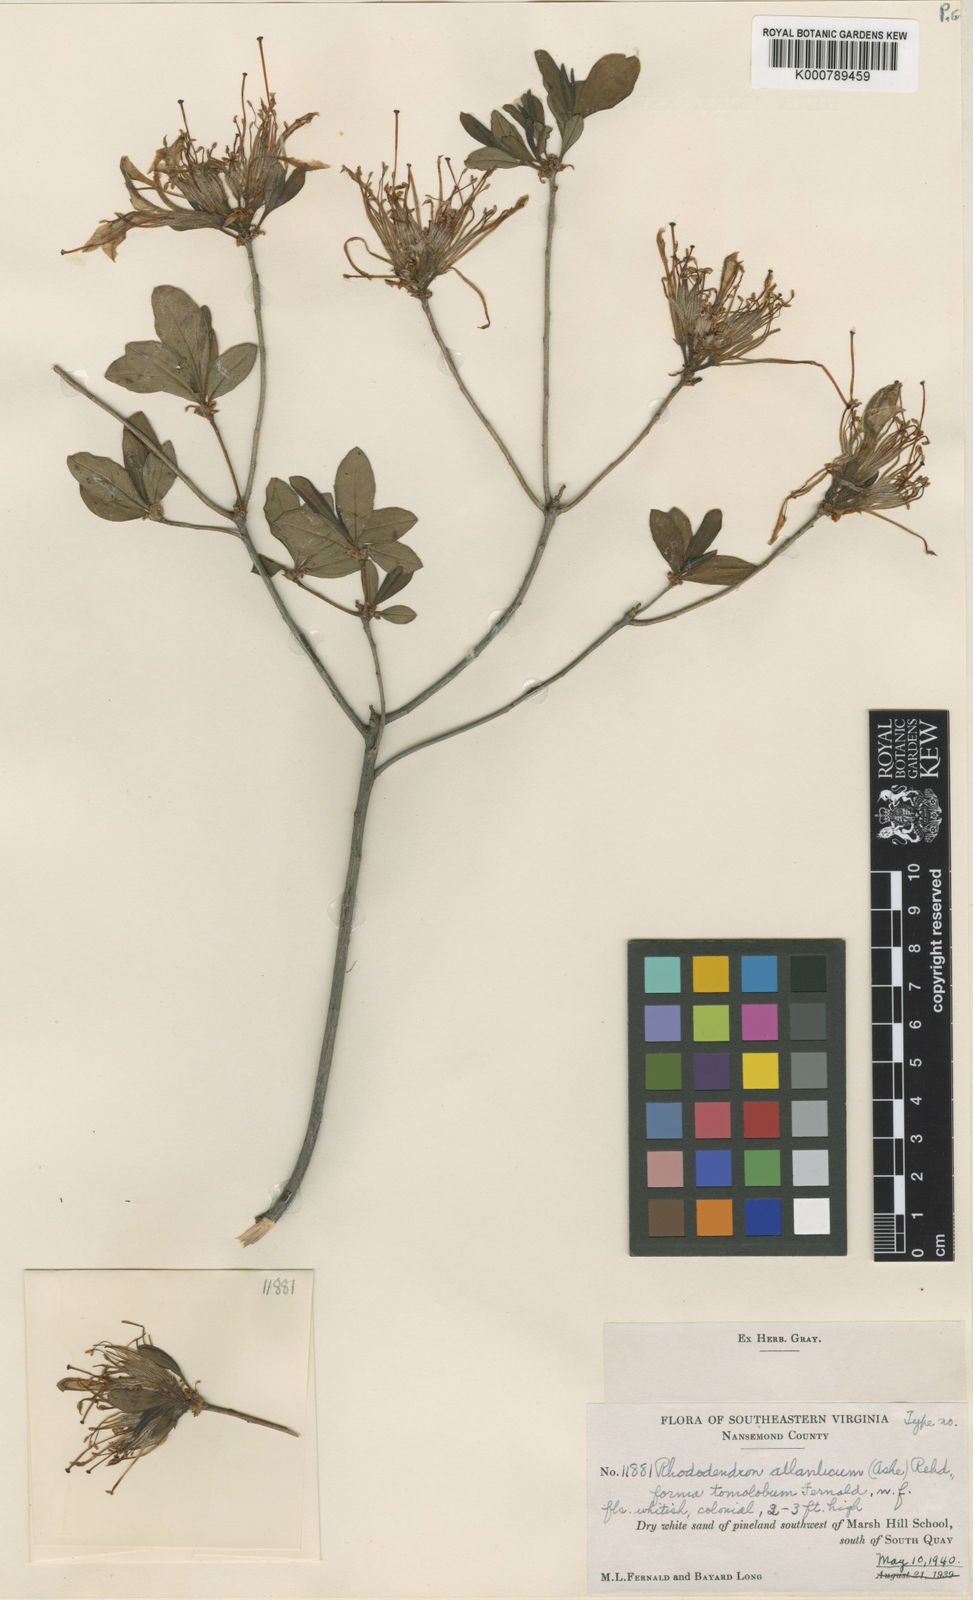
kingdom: Plantae
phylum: Tracheophyta
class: Magnoliopsida
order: Ericales
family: Ericaceae
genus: Rhododendron
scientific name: Rhododendron
